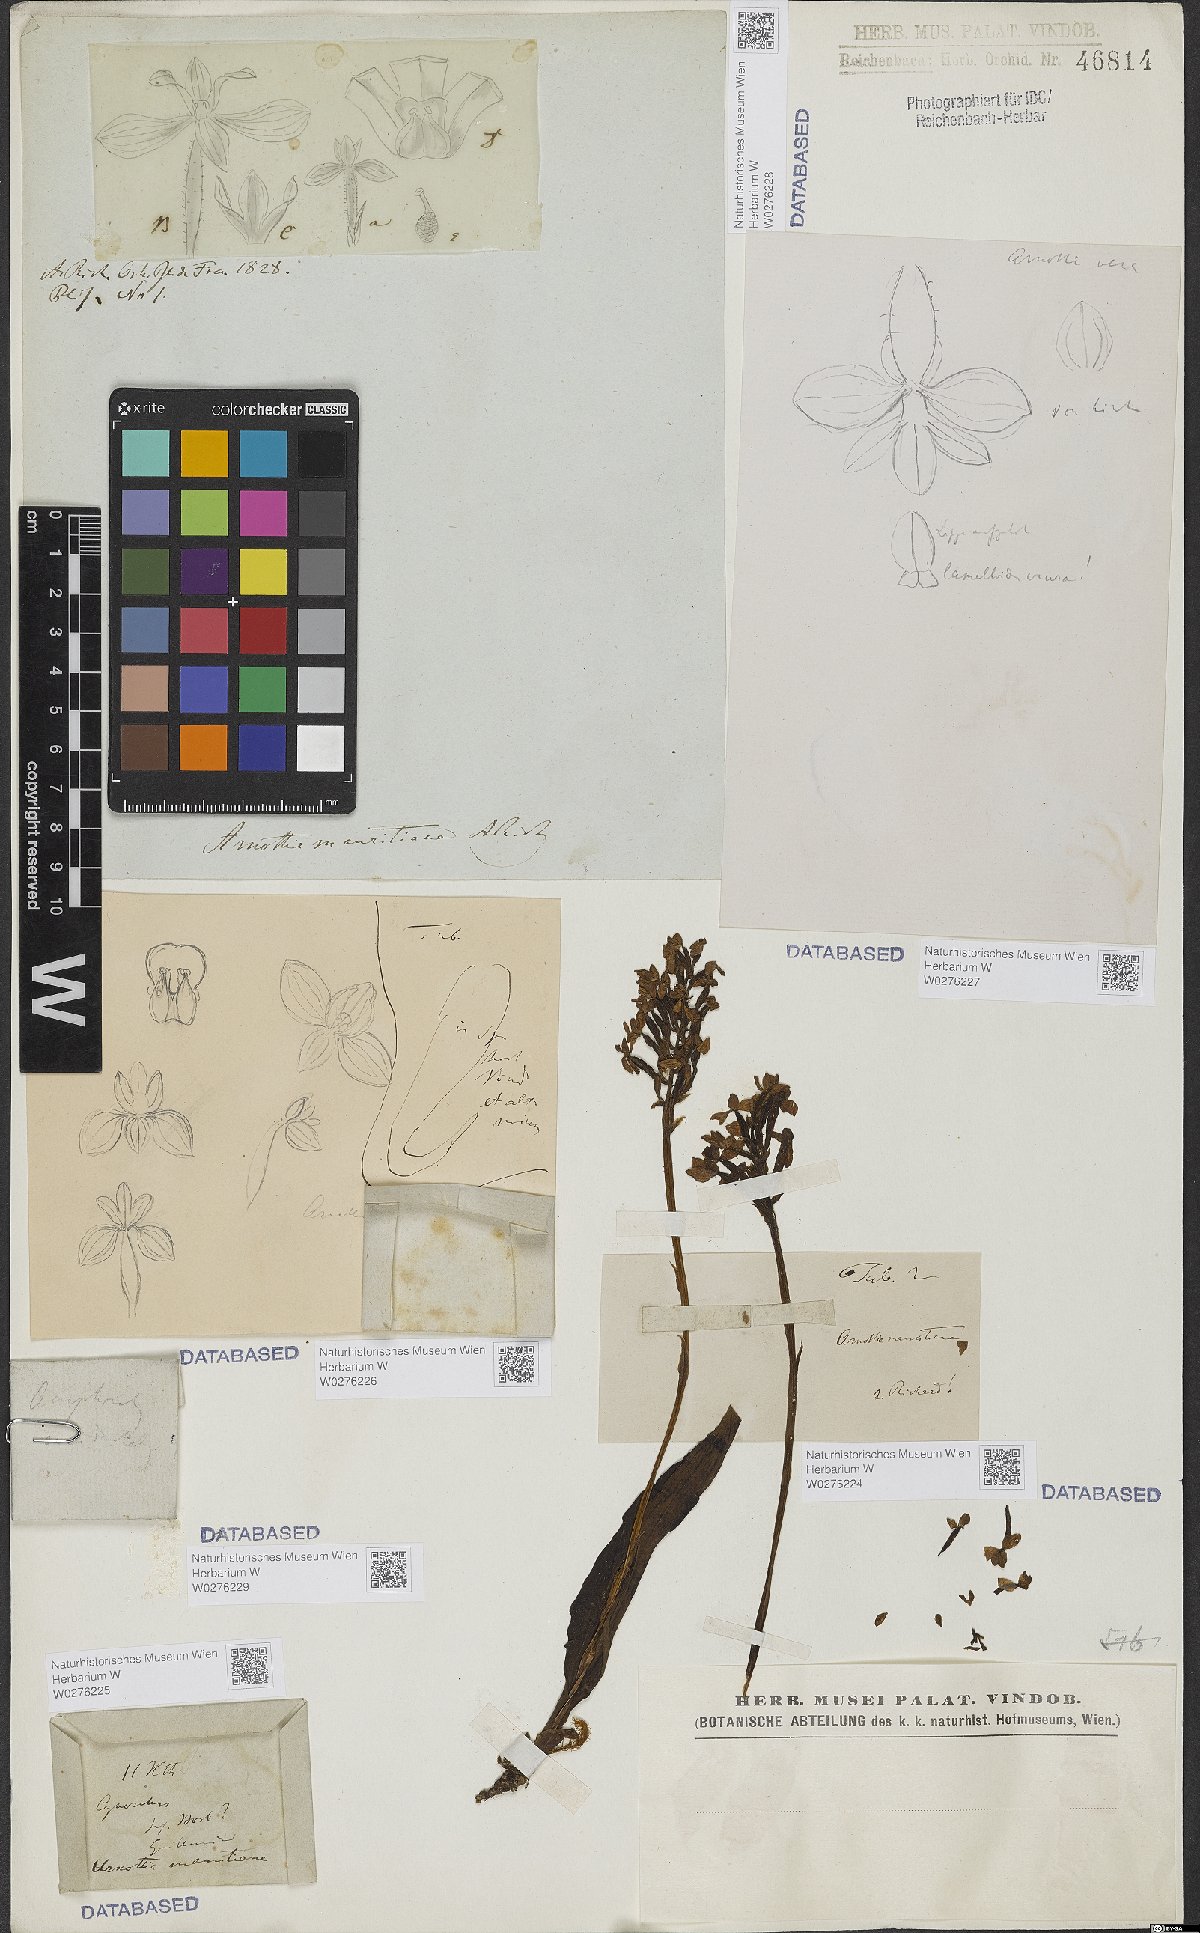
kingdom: Plantae
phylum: Tracheophyta
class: Liliopsida
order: Asparagales
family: Orchidaceae
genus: Cynorkis
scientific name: Cynorkis inermis
